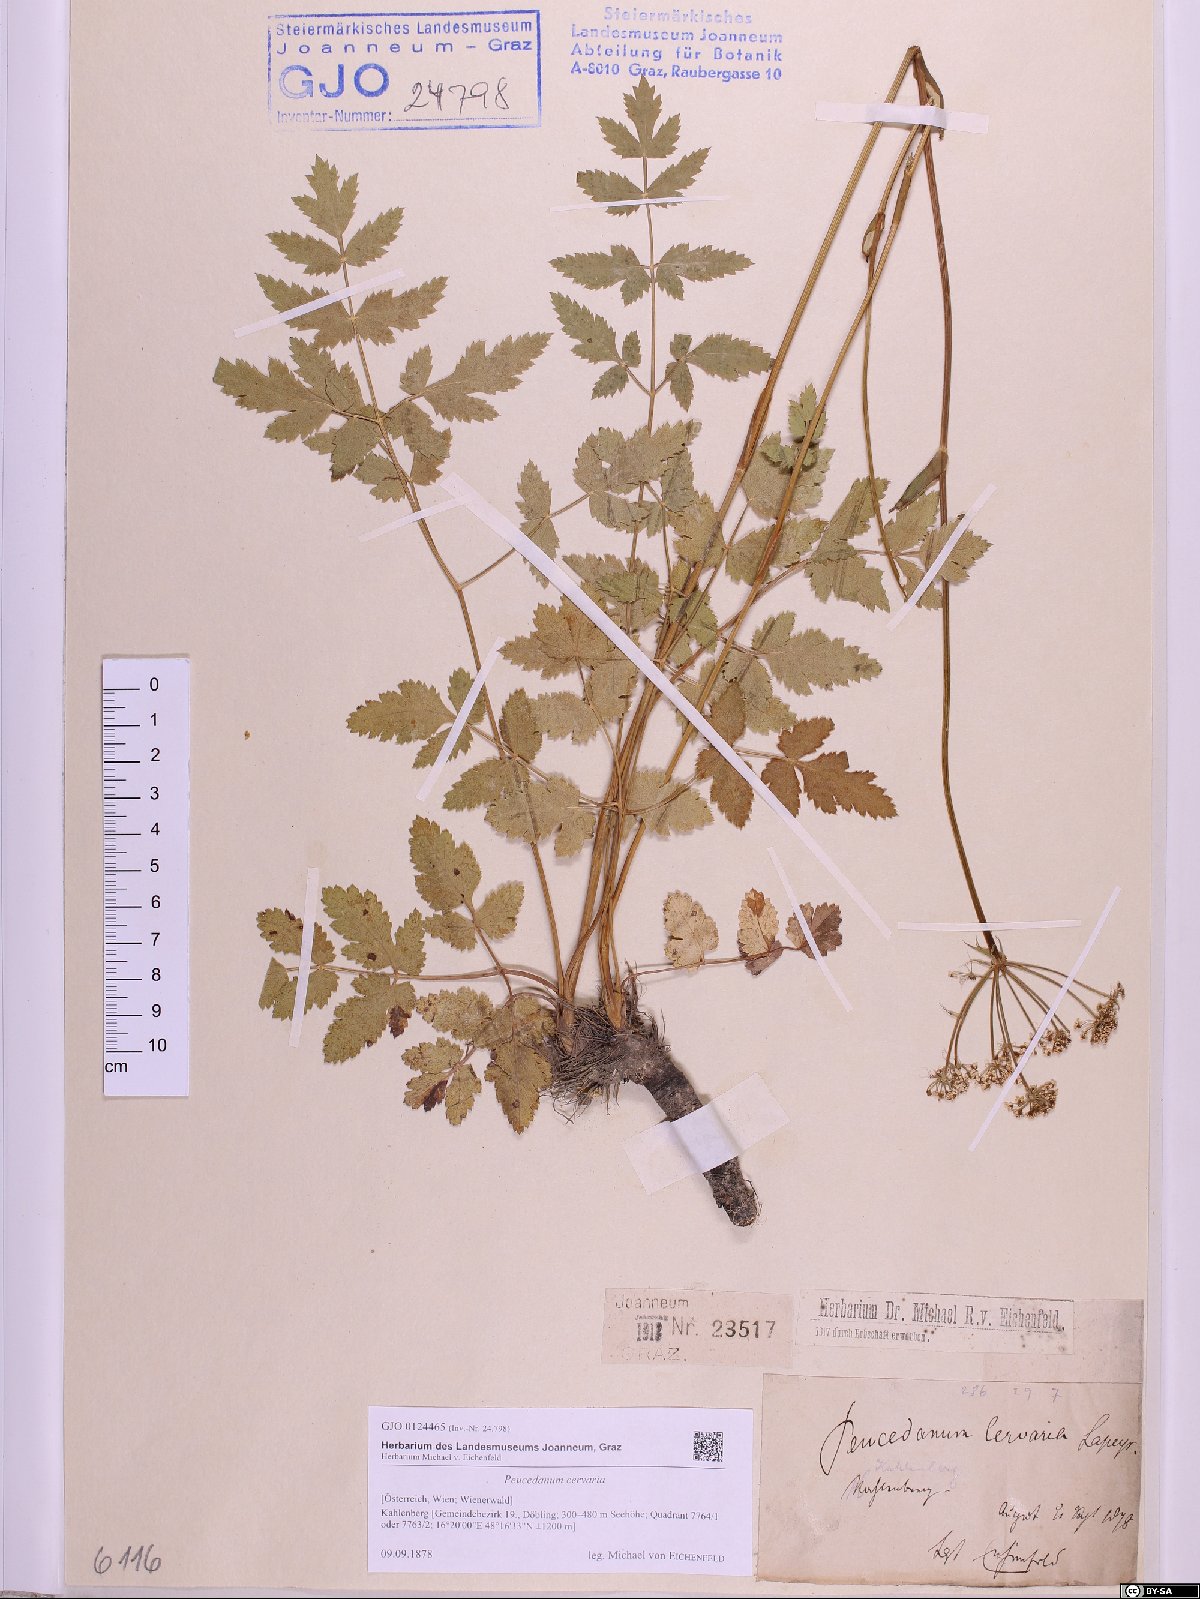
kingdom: Plantae
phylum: Tracheophyta
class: Magnoliopsida
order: Apiales
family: Apiaceae
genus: Cervaria
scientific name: Cervaria rivini
